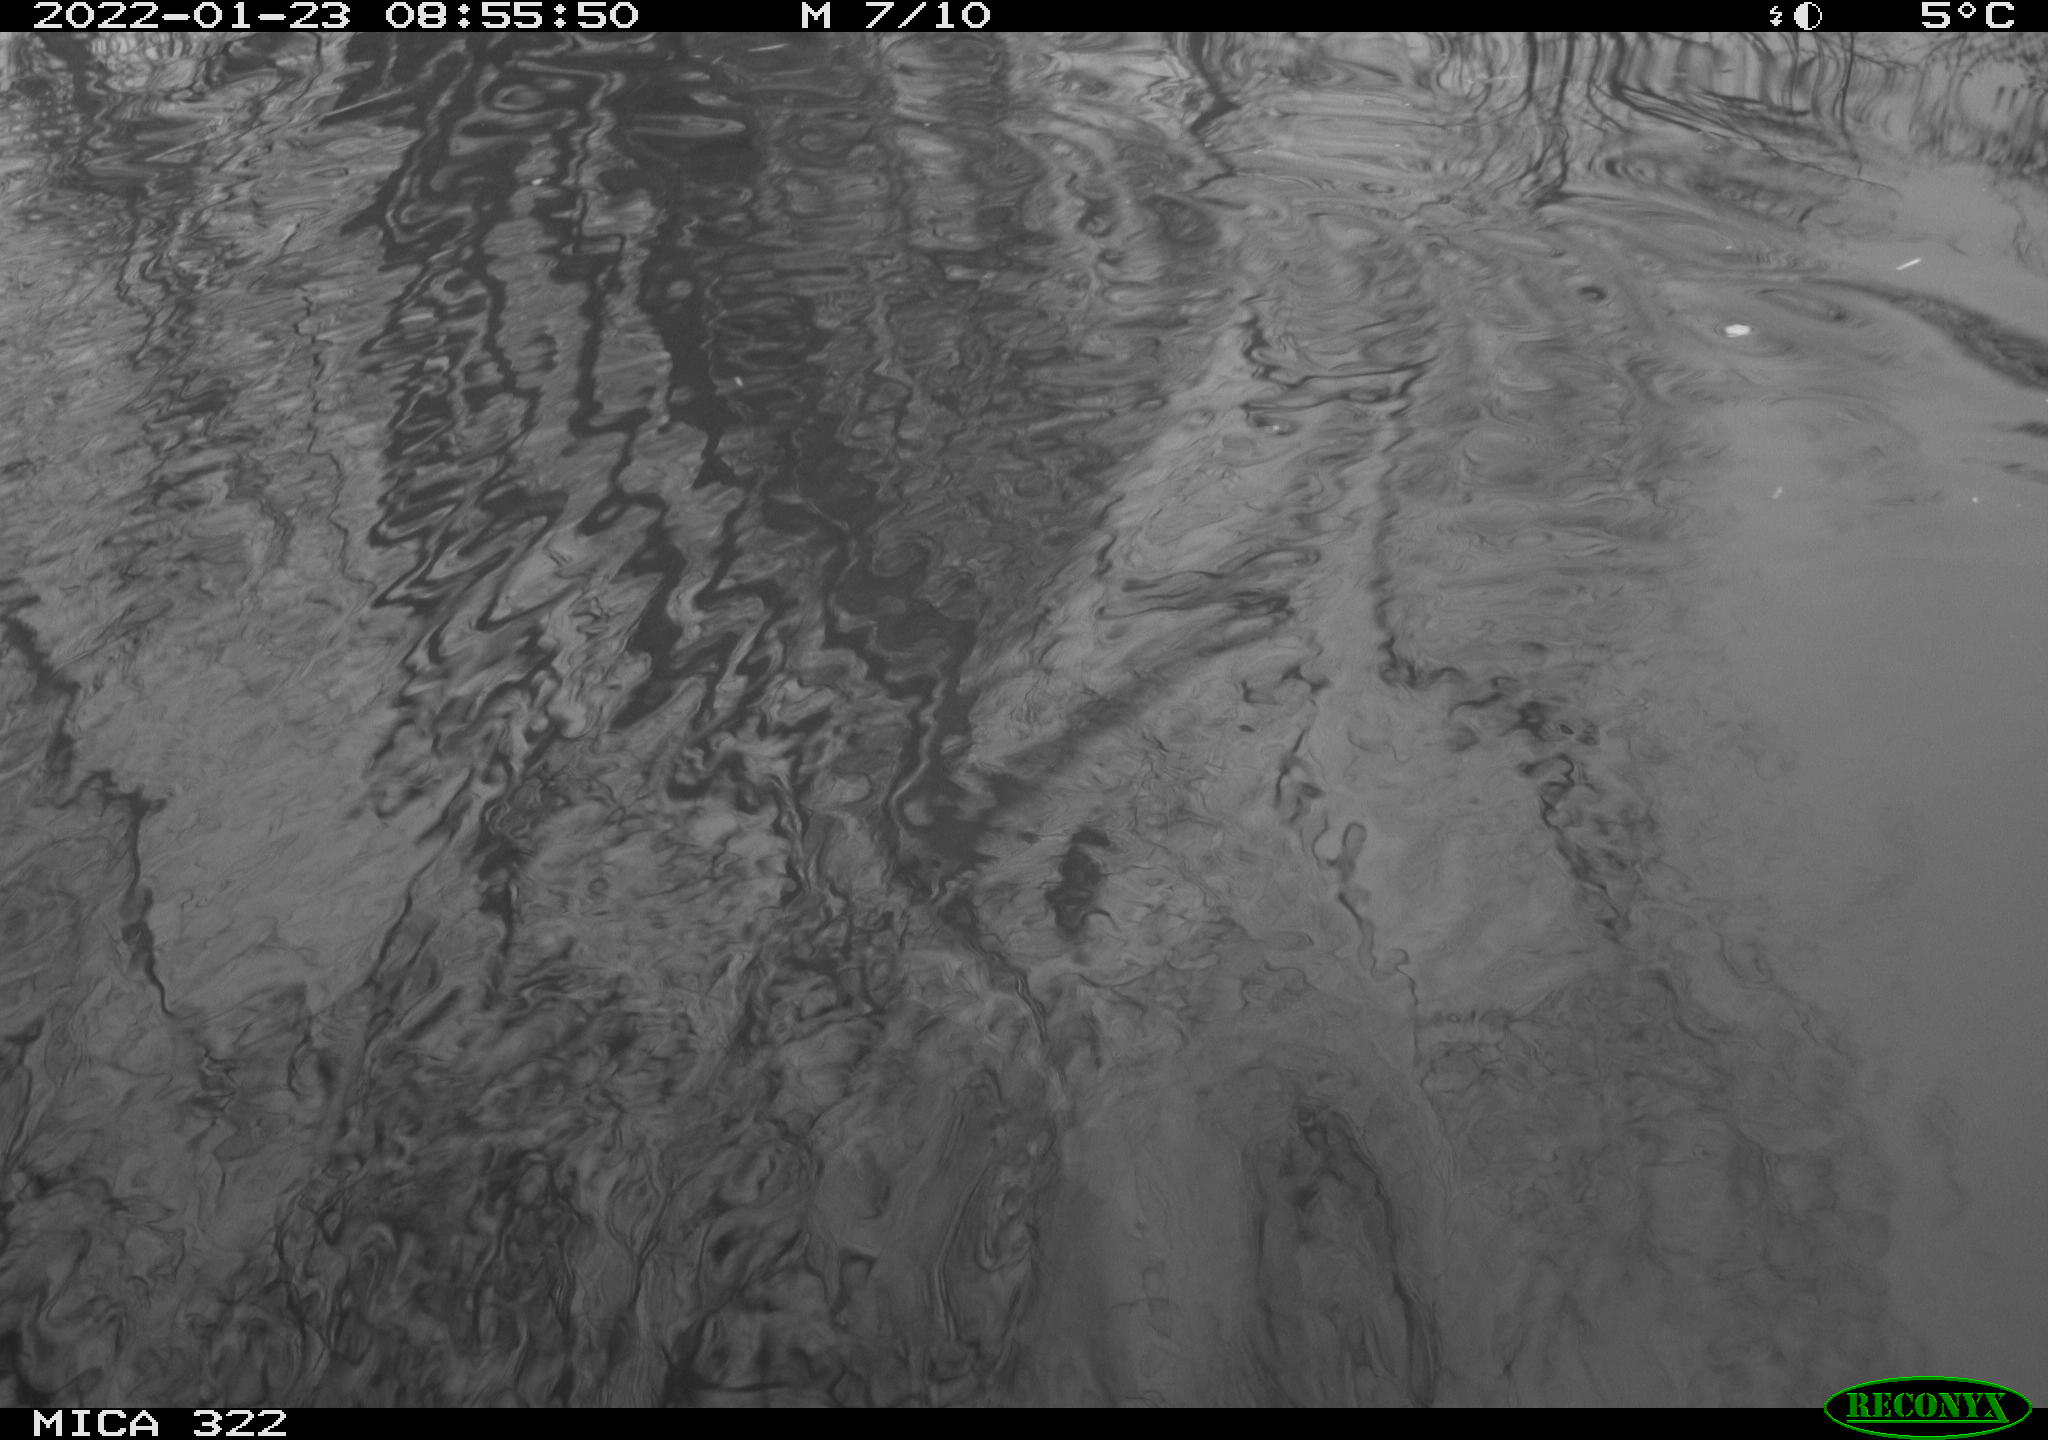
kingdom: Animalia
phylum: Chordata
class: Aves
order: Podicipediformes
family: Podicipedidae
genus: Tachybaptus
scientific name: Tachybaptus ruficollis
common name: Little grebe
